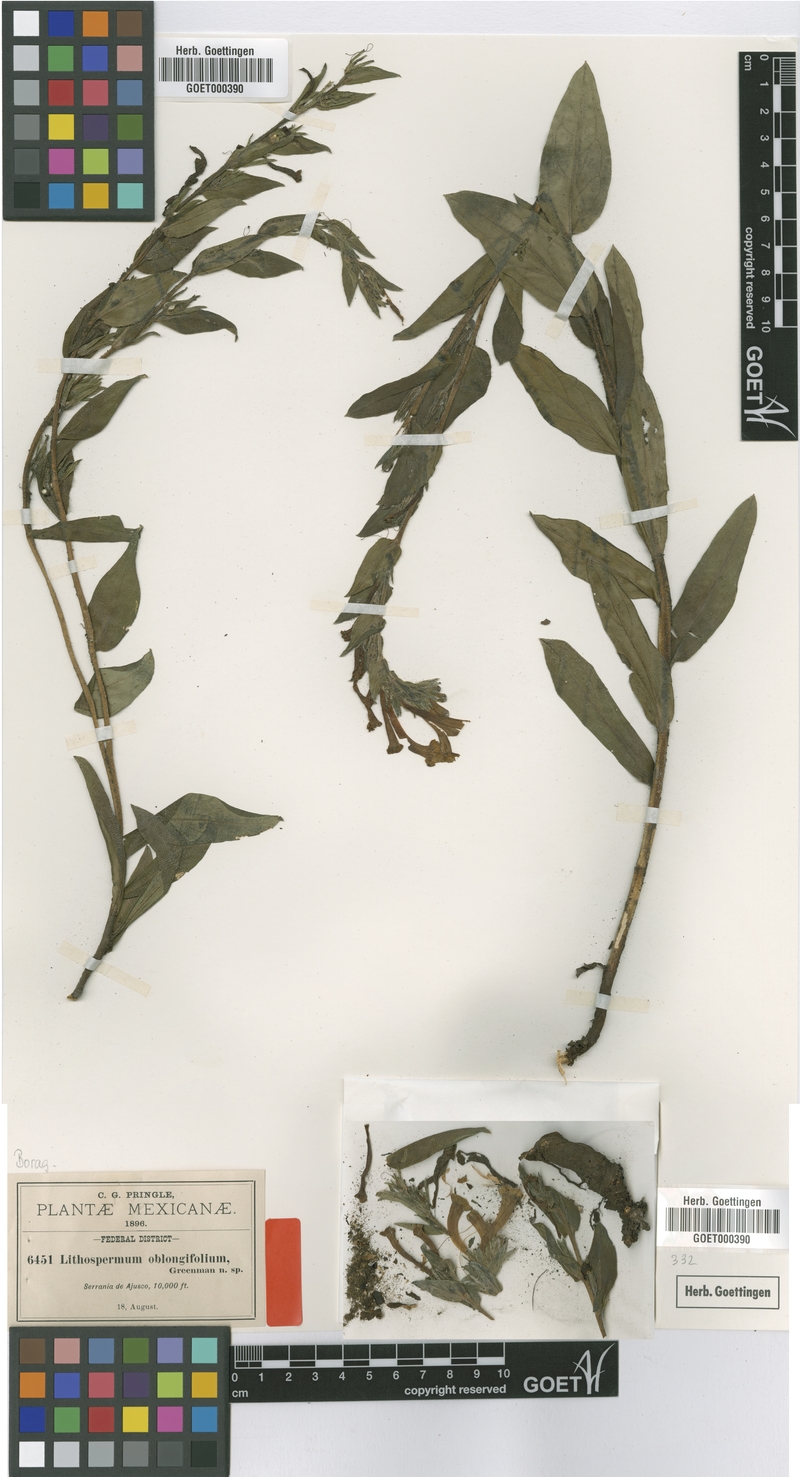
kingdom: Plantae
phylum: Tracheophyta
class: Magnoliopsida
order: Boraginales
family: Boraginaceae
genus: Lithospermum
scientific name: Lithospermum oblongifolium
